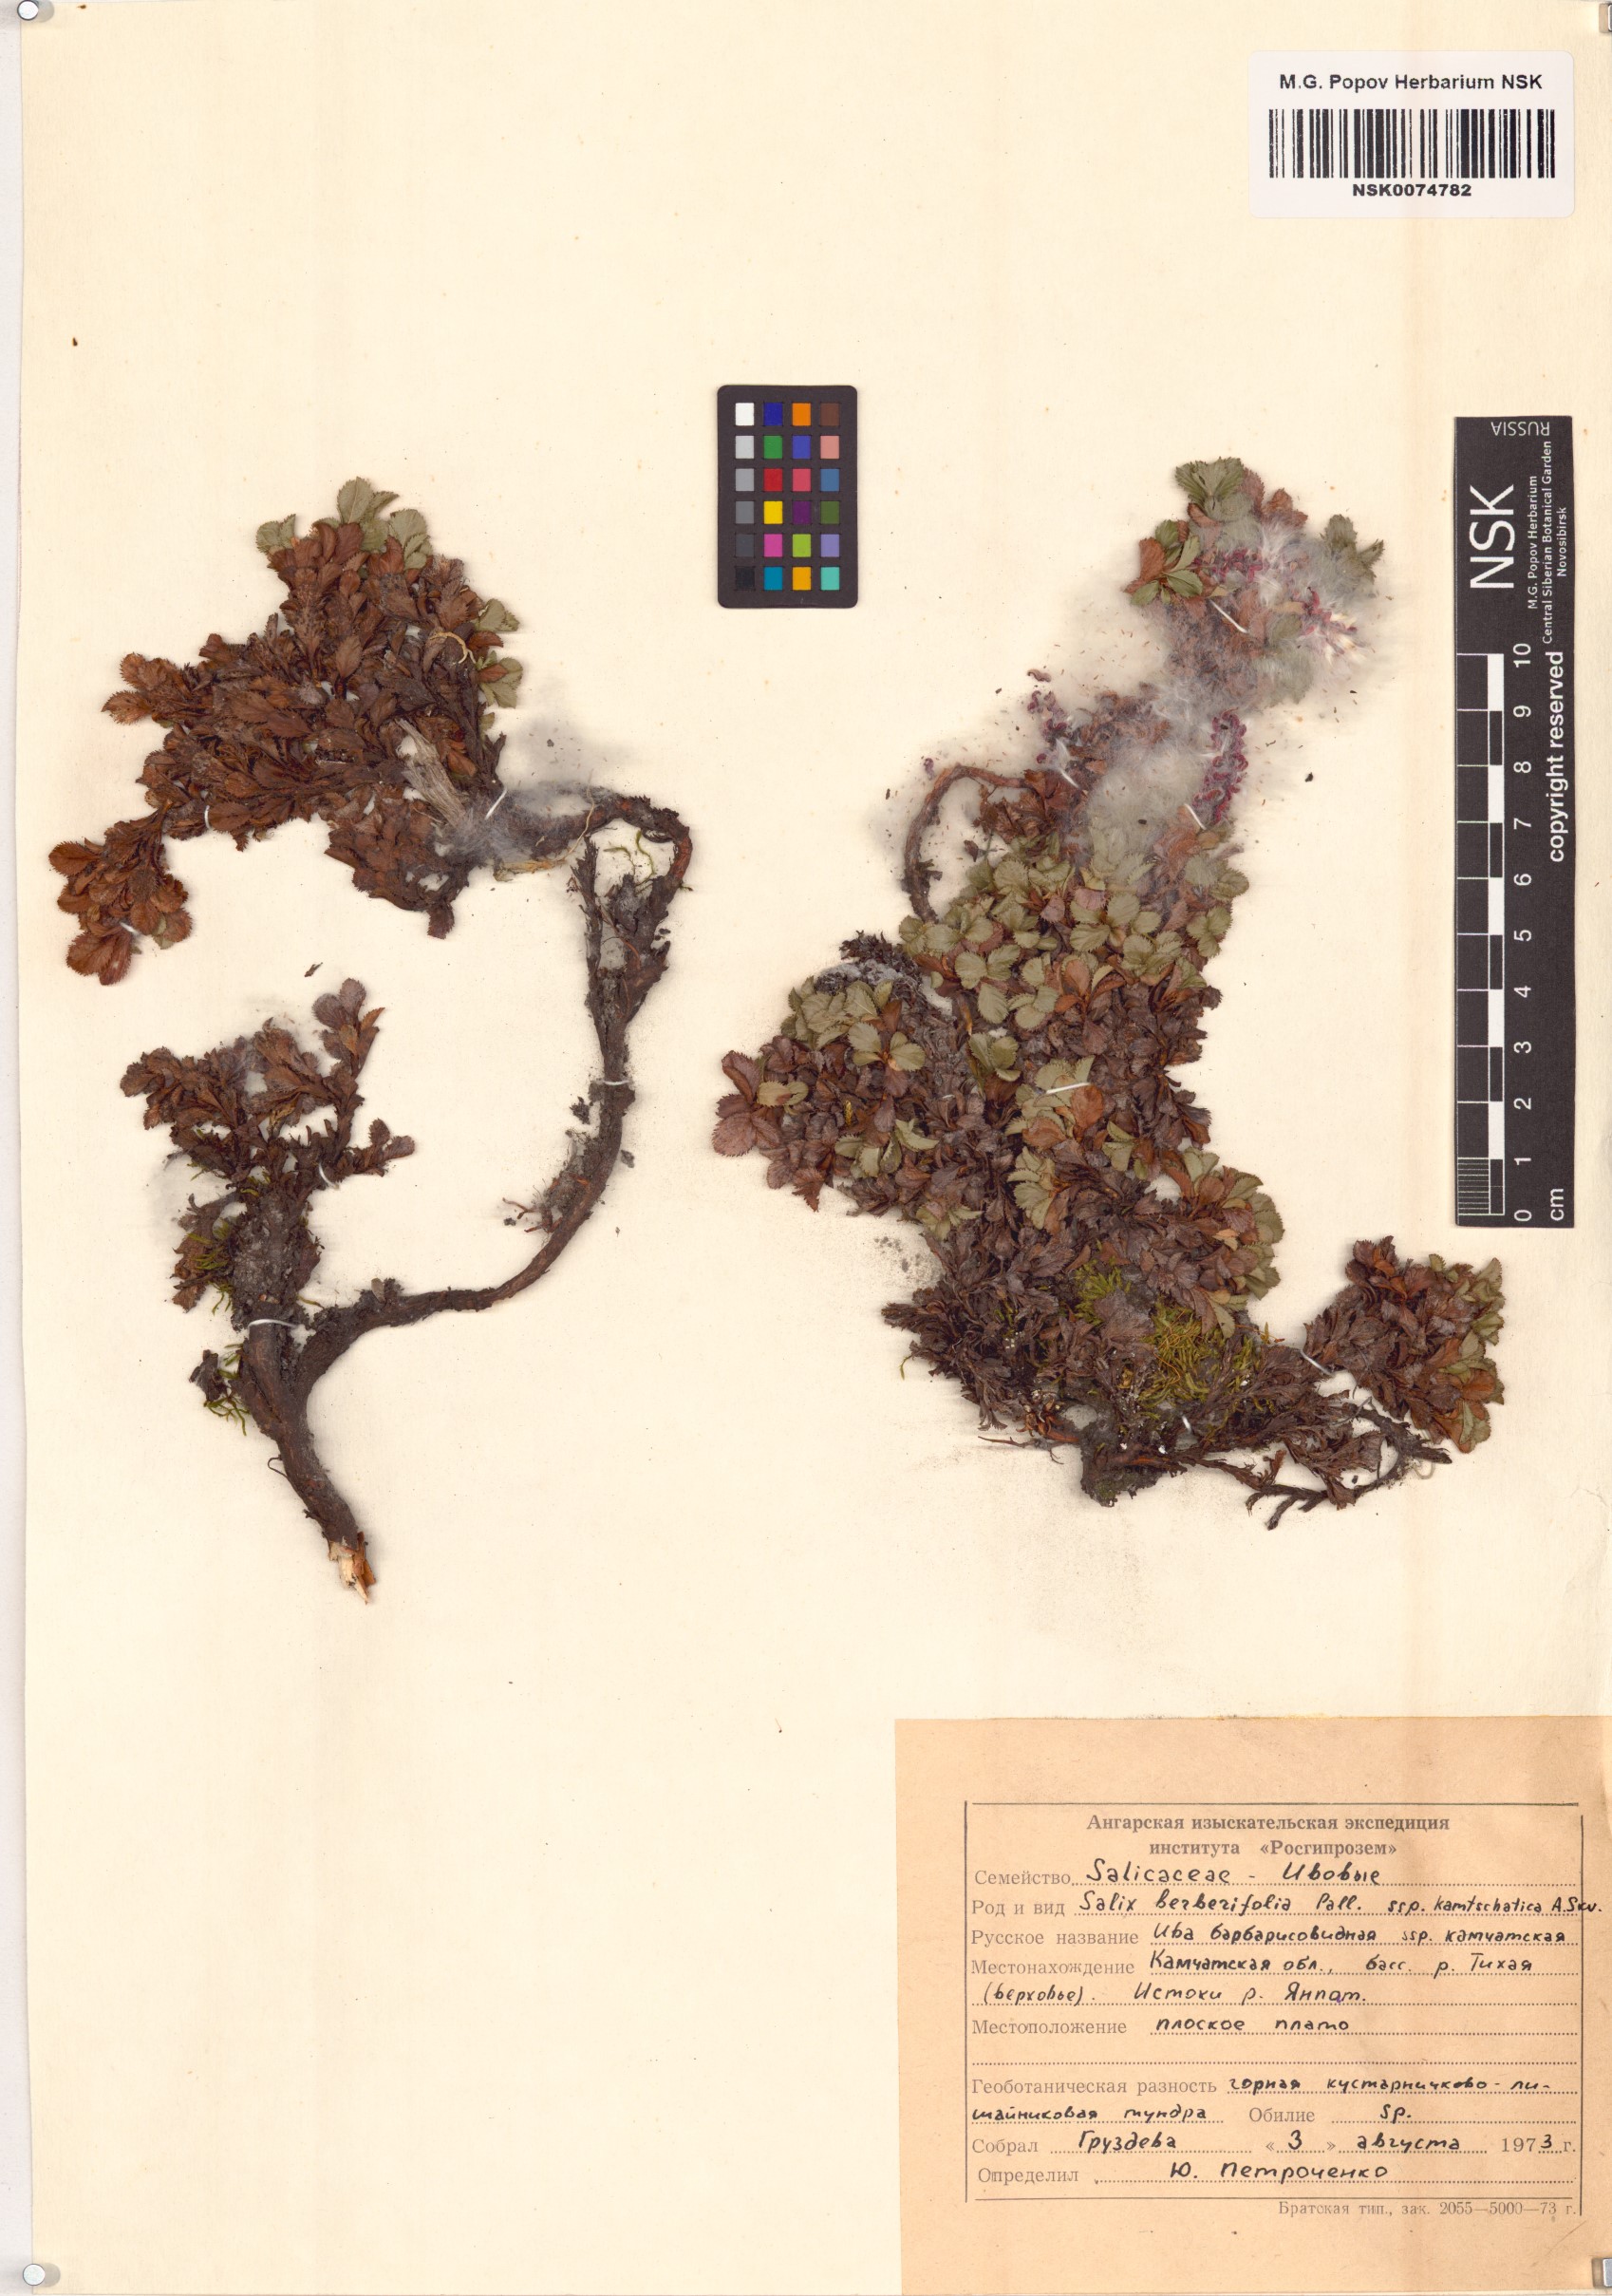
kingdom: Plantae
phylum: Tracheophyta
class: Magnoliopsida
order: Malpighiales
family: Salicaceae
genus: Salix
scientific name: Salix berberifolia
